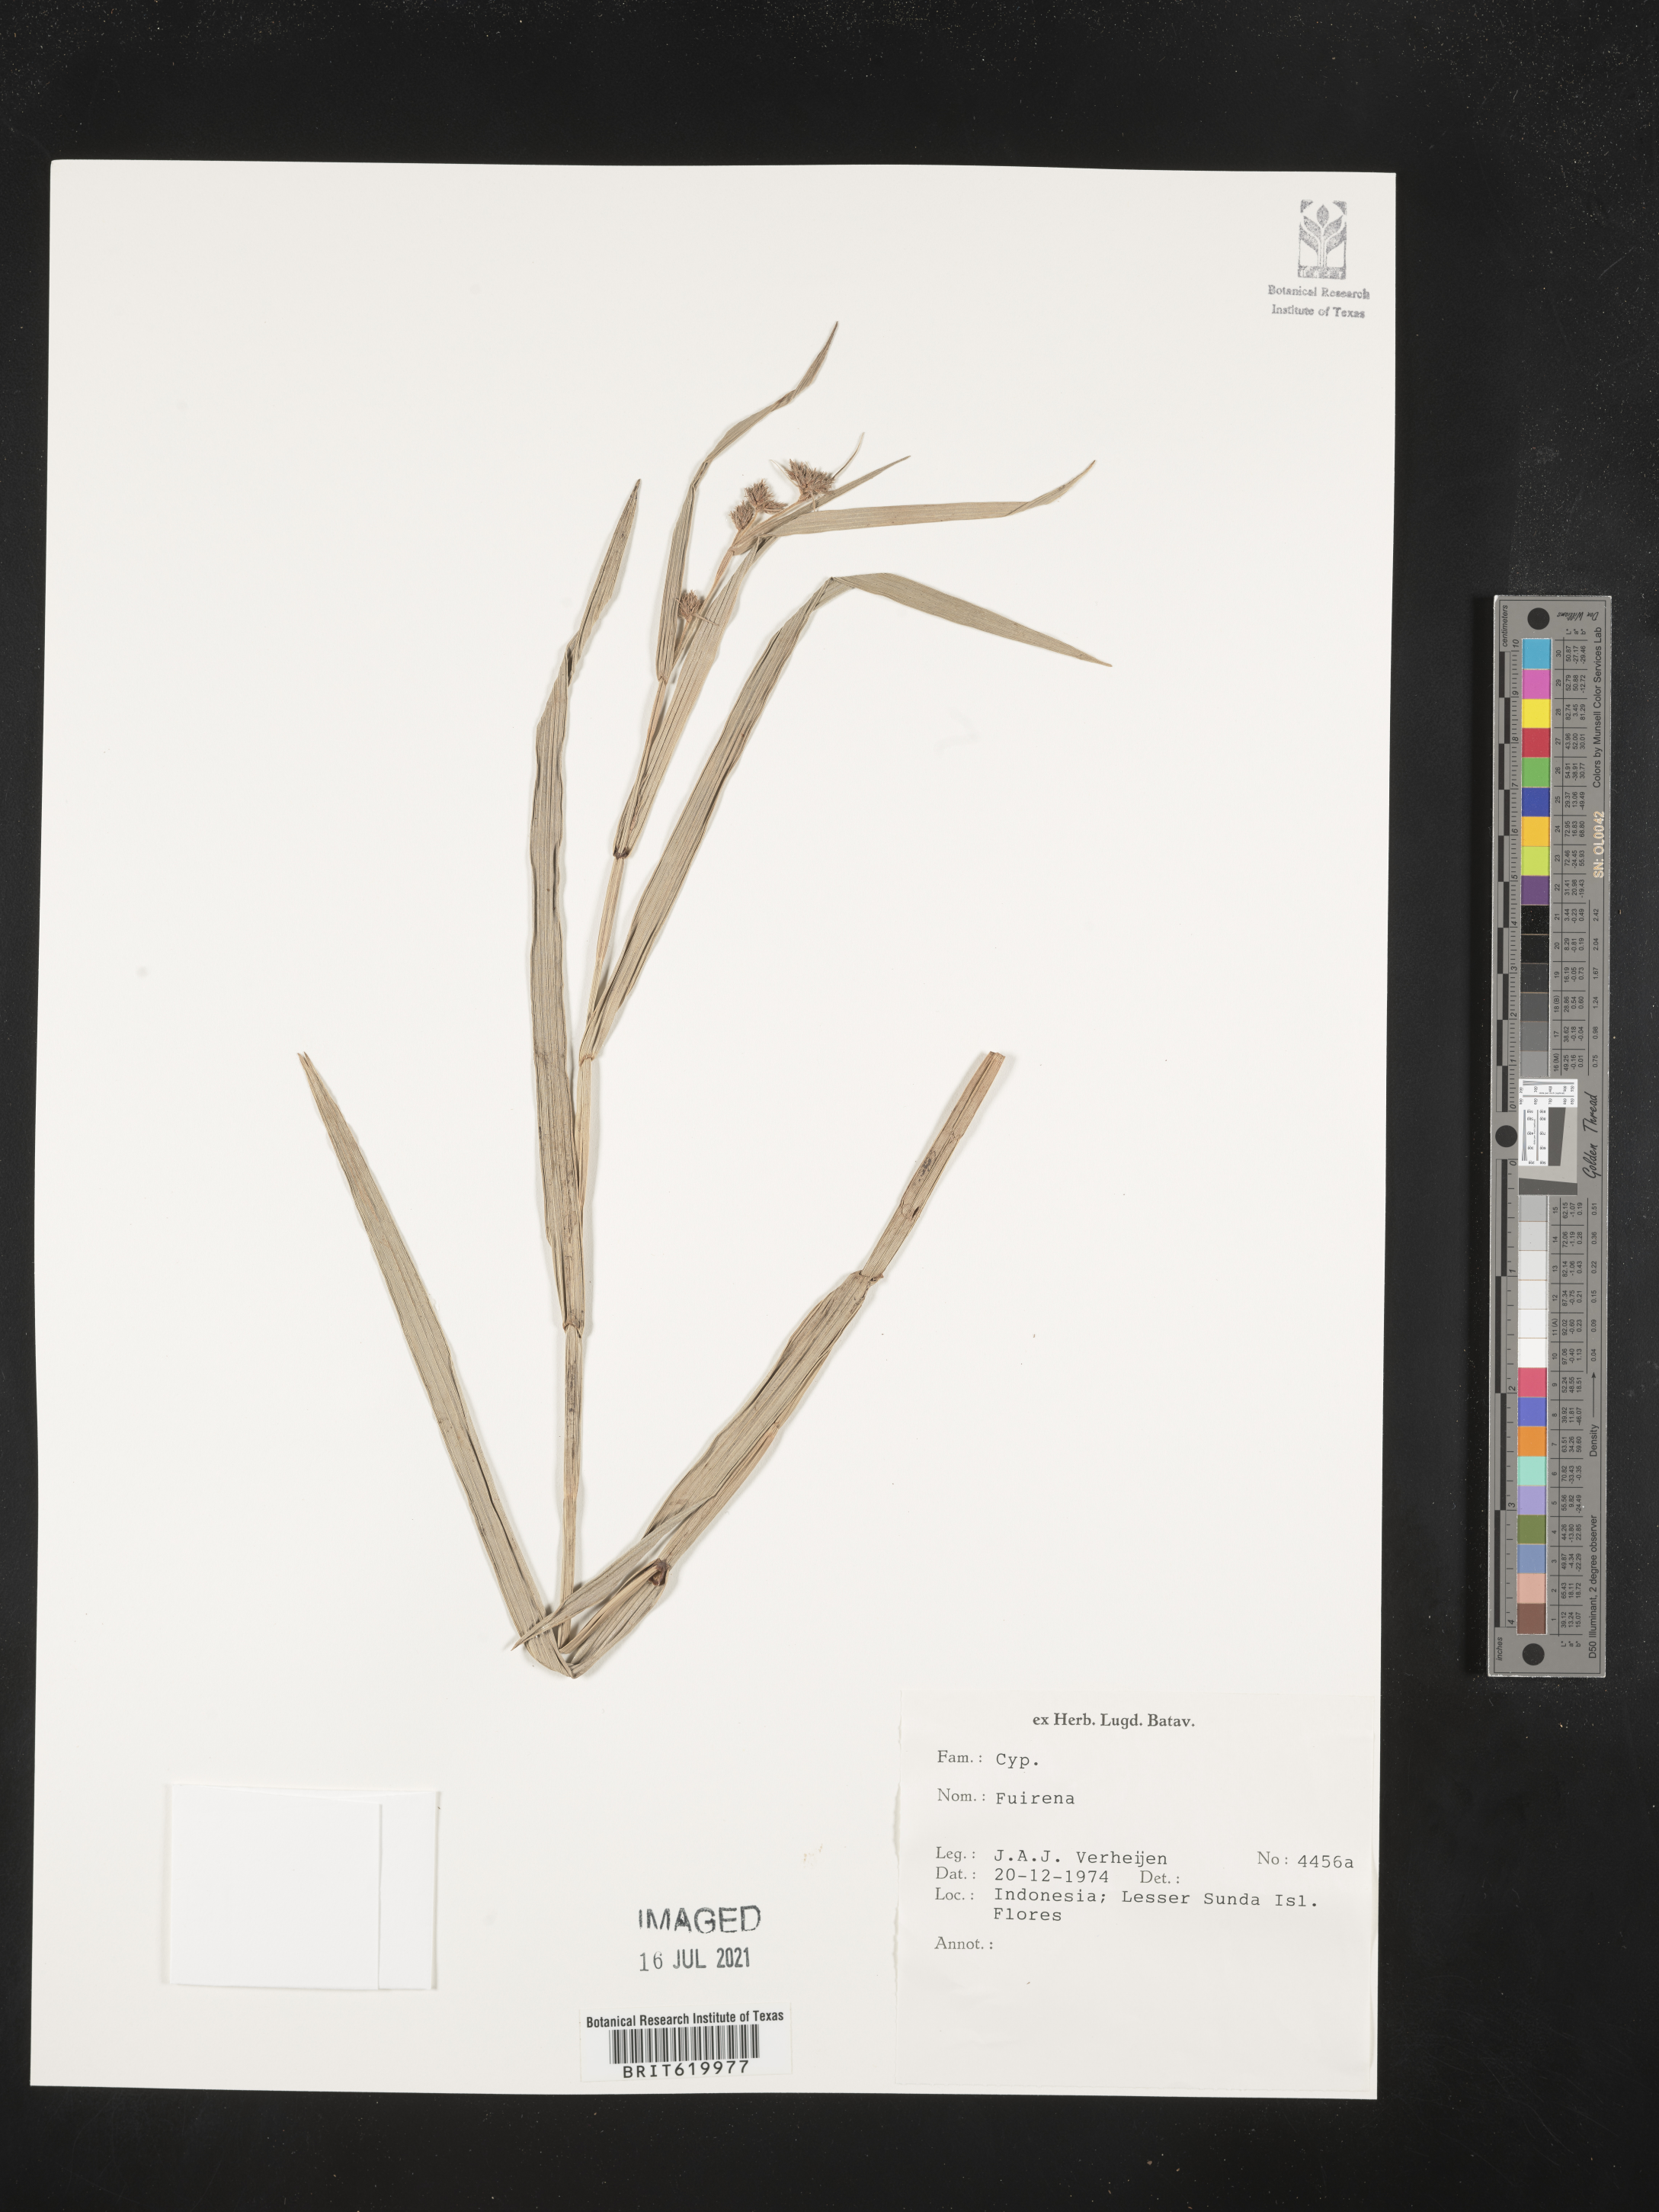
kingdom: Plantae
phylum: Tracheophyta
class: Liliopsida
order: Poales
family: Cyperaceae
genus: Fuirena
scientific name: Fuirena
